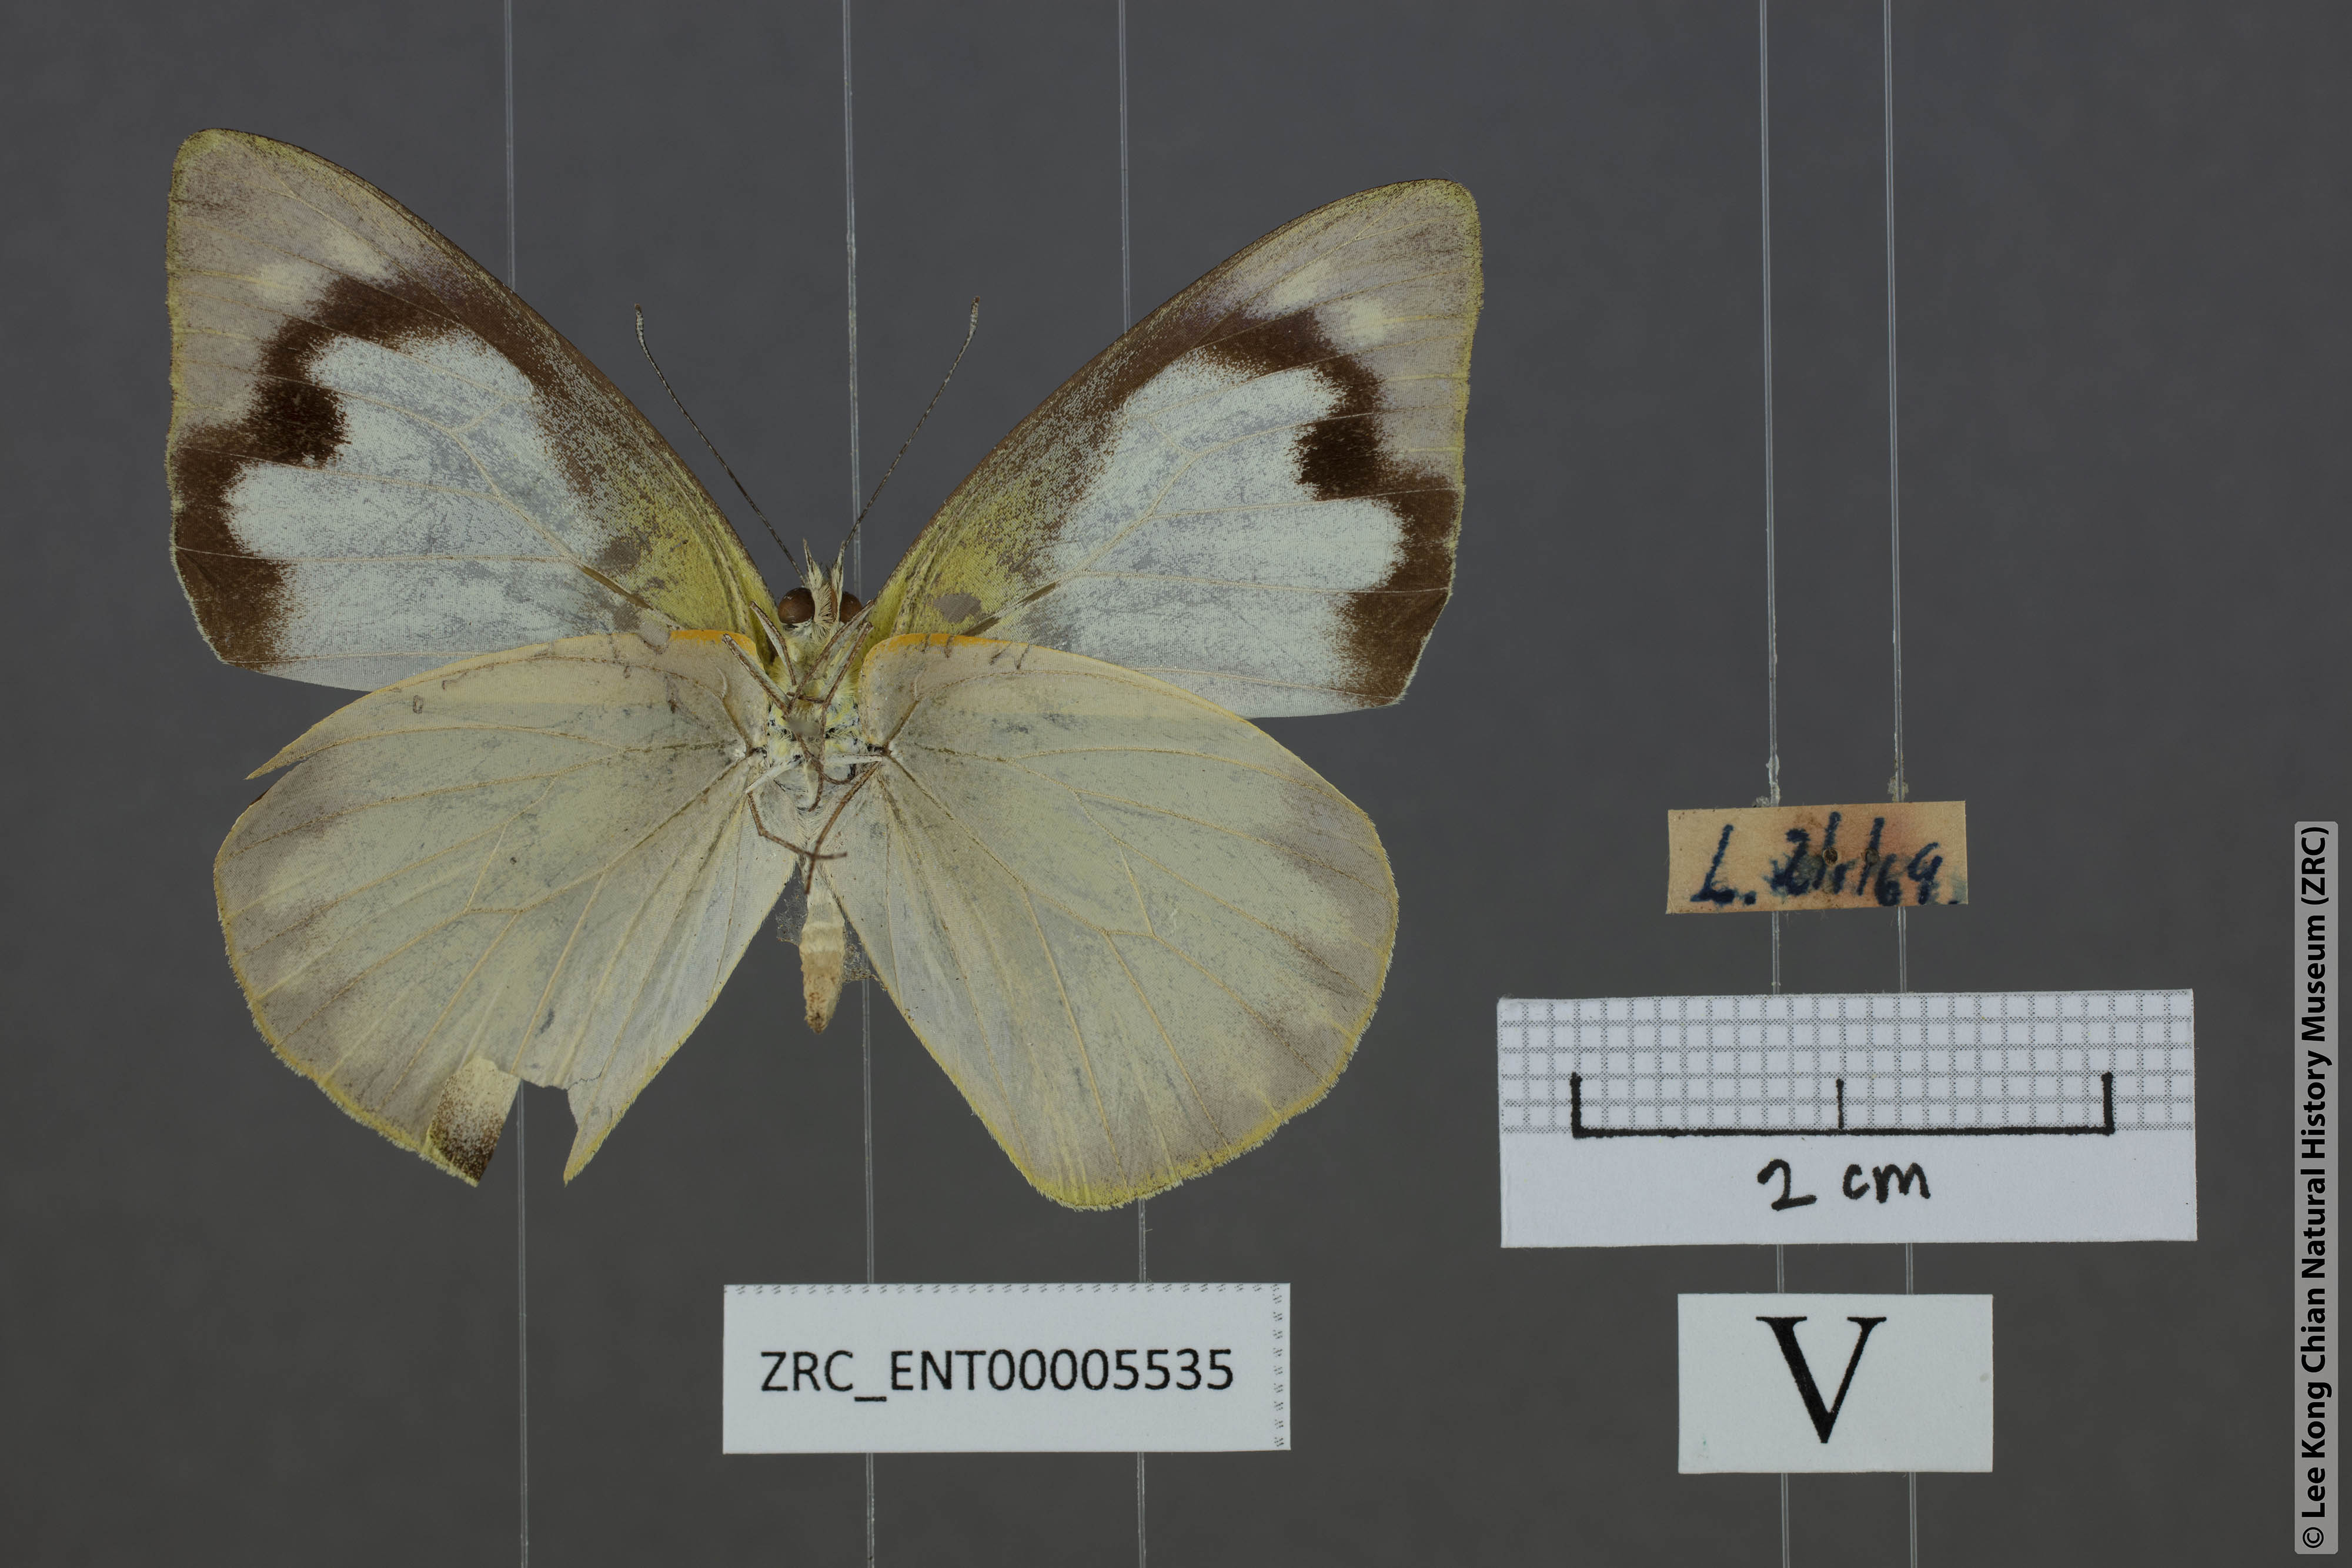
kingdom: Animalia
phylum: Arthropoda
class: Insecta
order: Lepidoptera
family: Pieridae
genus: Appias
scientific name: Appias albina
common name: Common albatross
